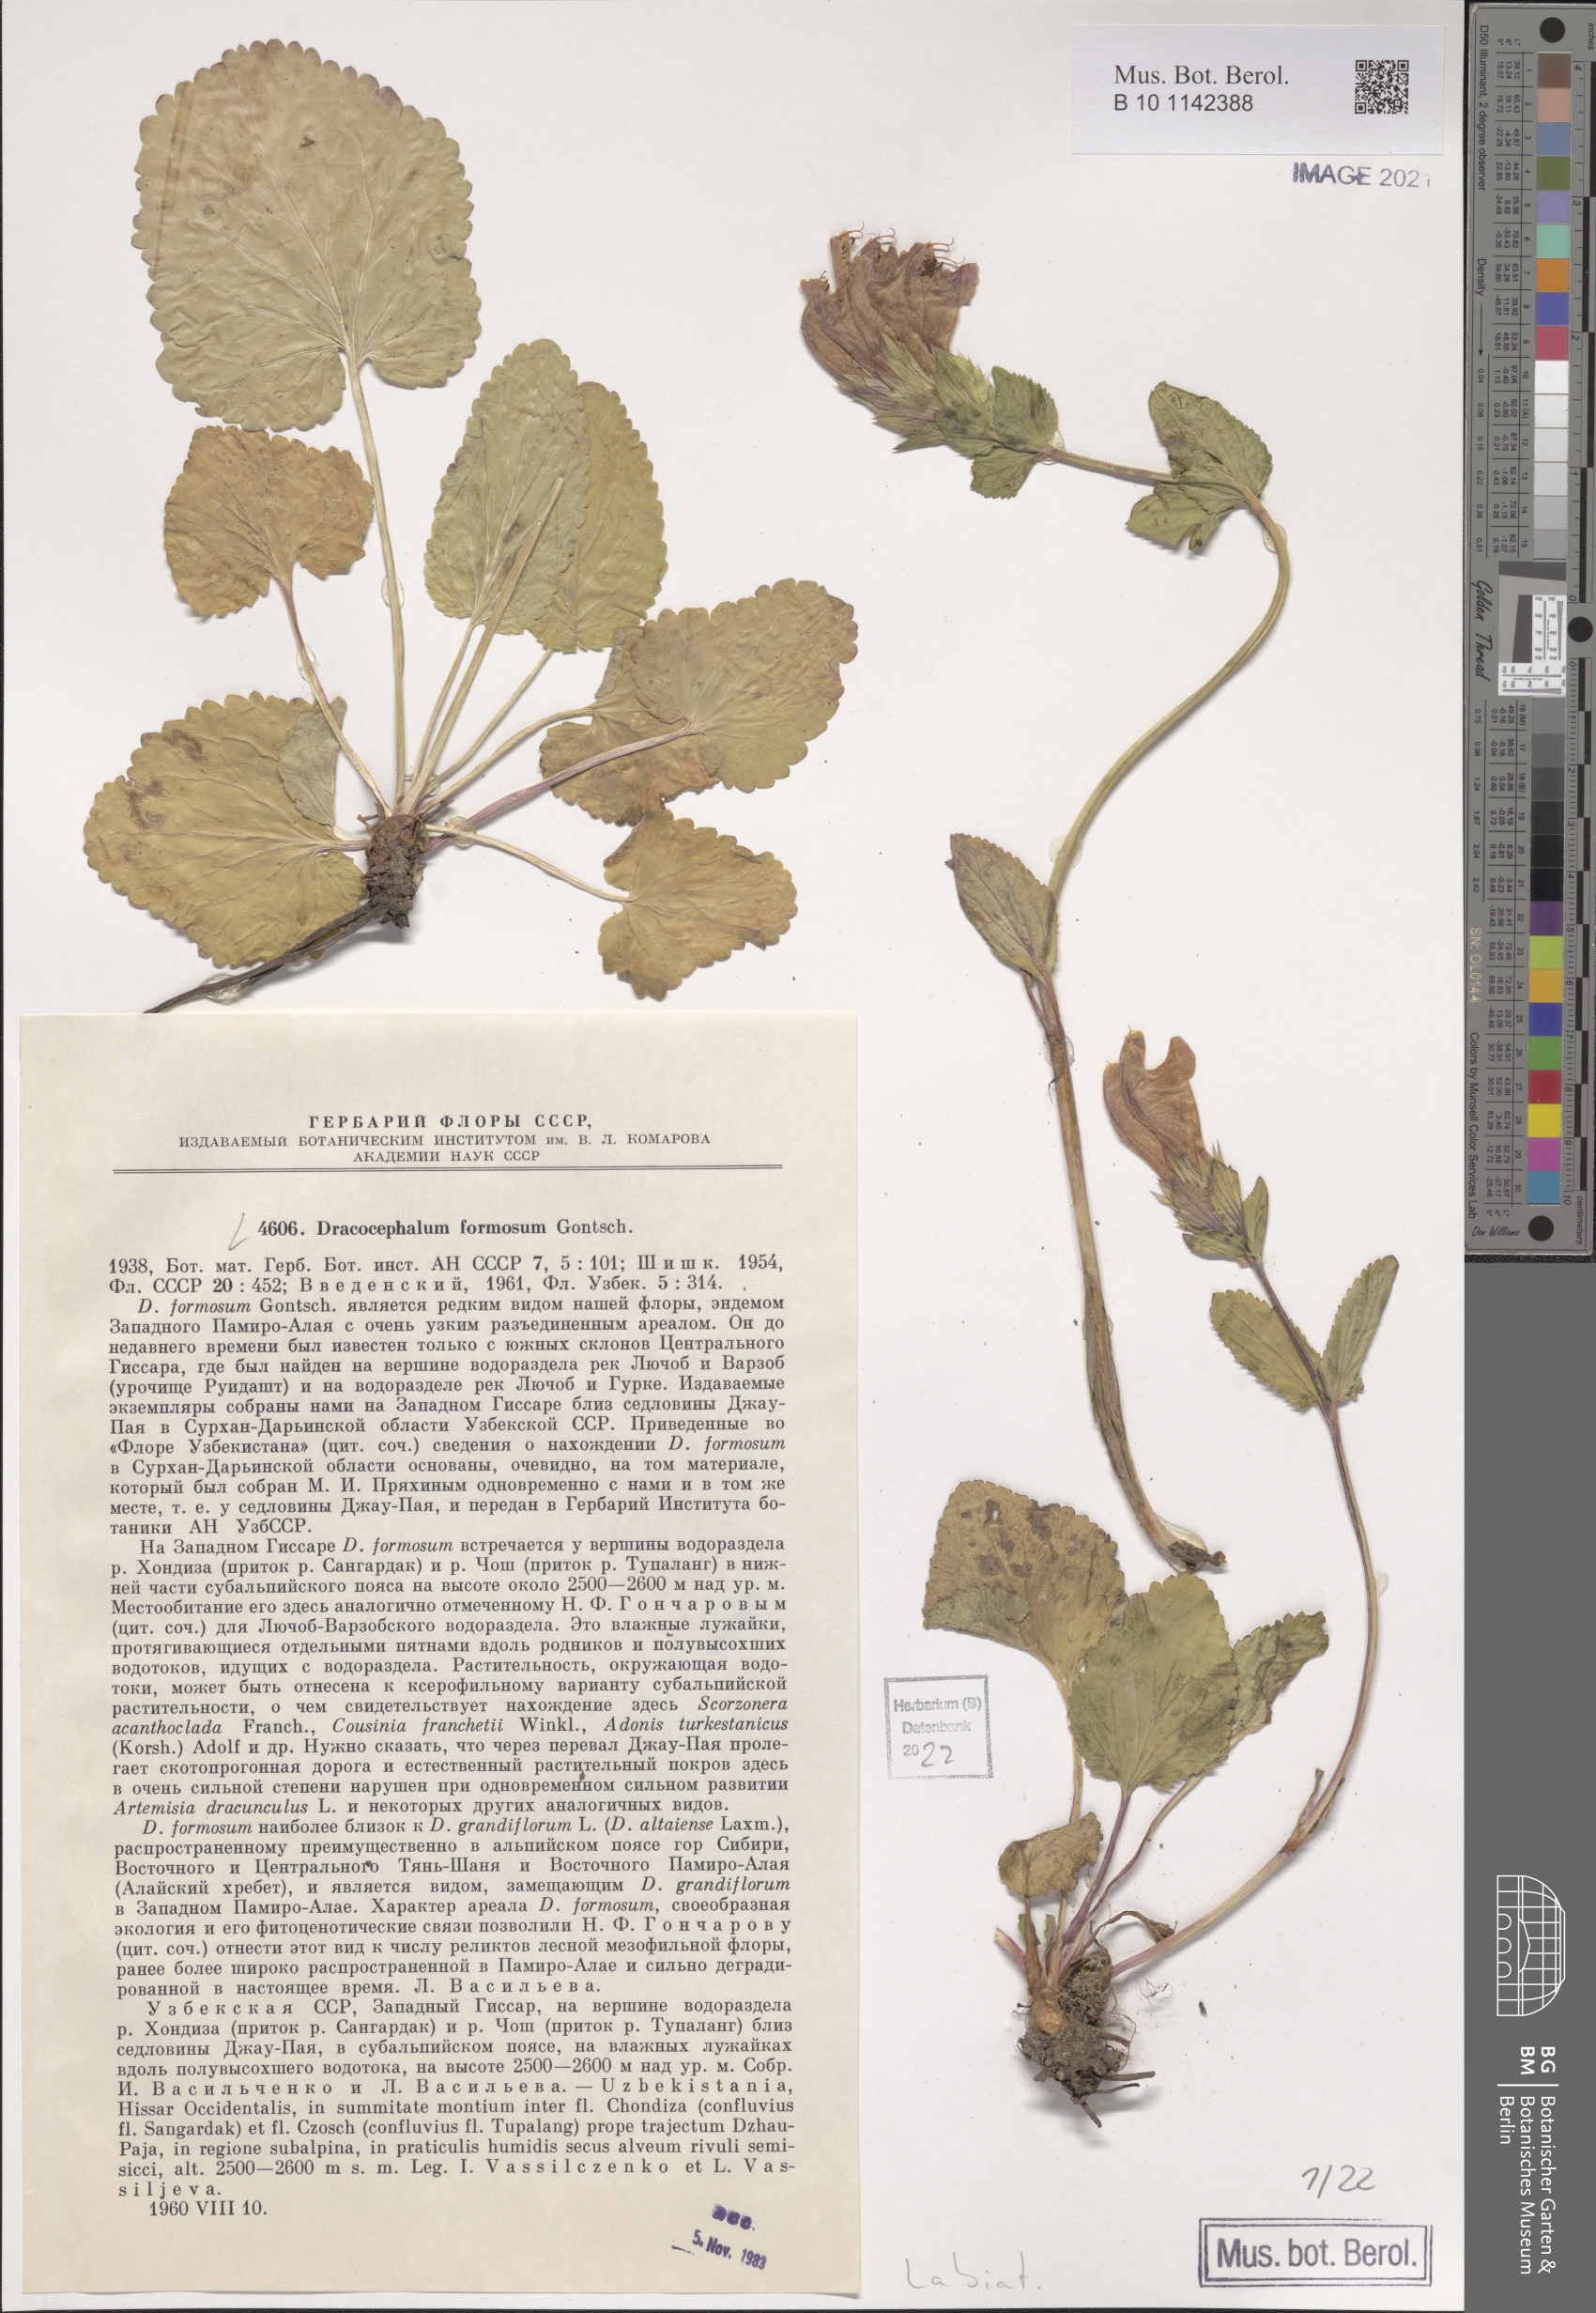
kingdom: Plantae
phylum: Tracheophyta
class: Magnoliopsida
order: Lamiales
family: Lamiaceae
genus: Dracocephalum
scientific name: Dracocephalum formosum
